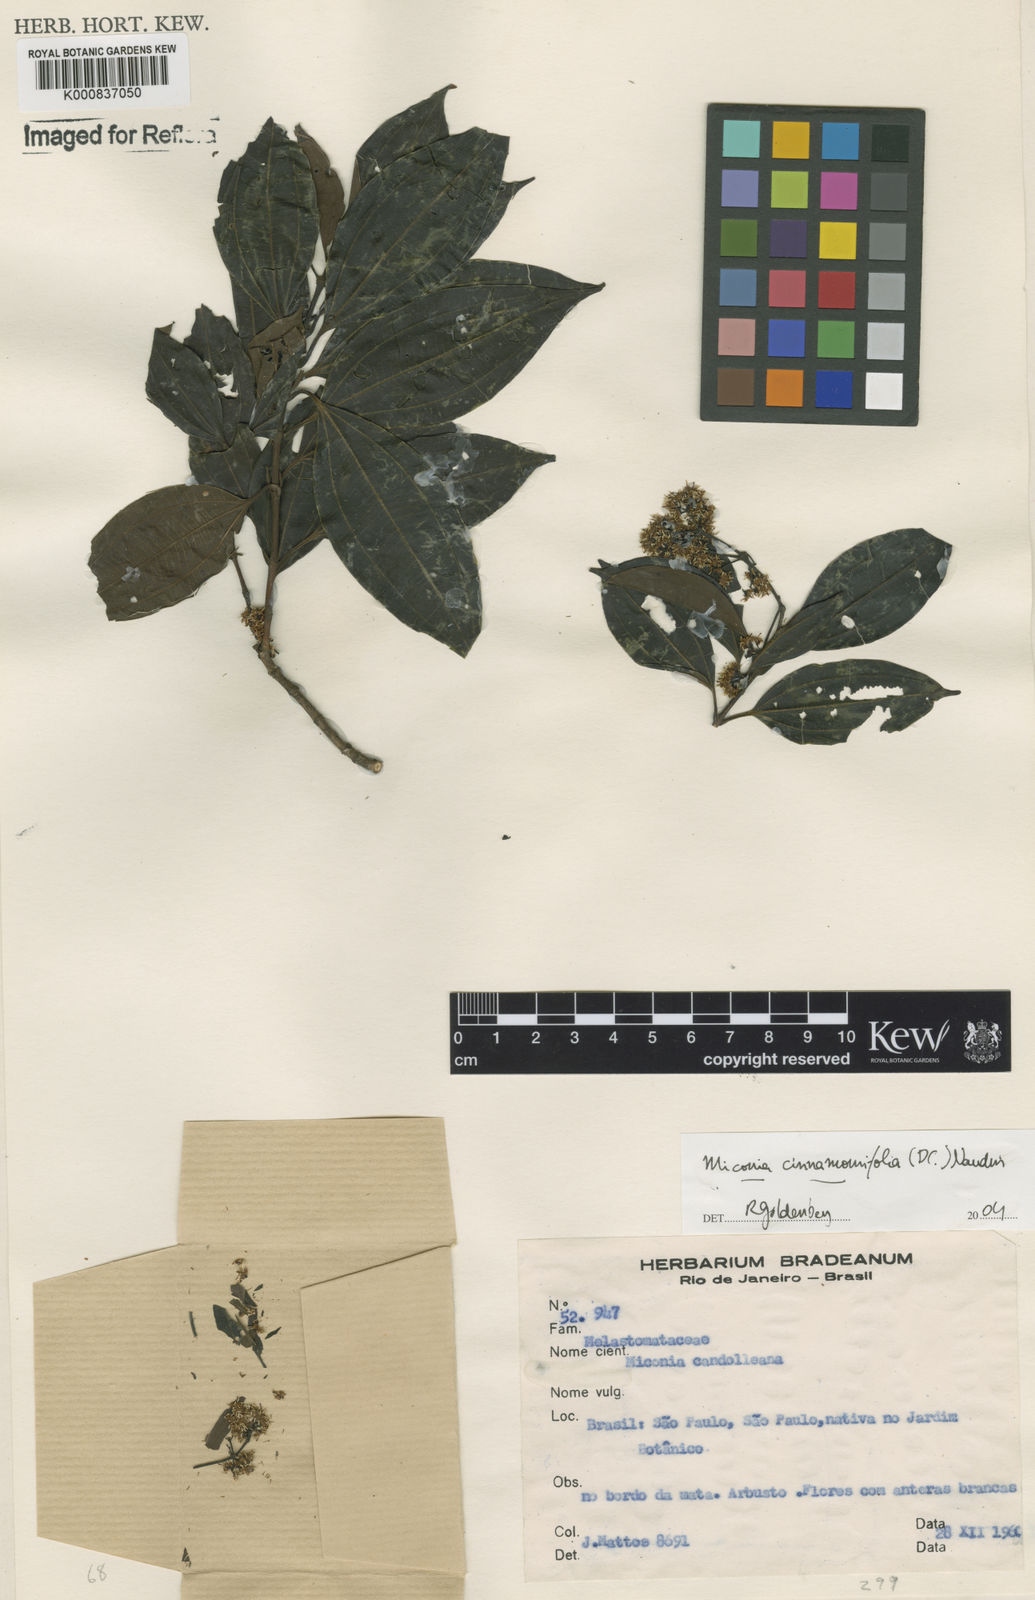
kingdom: Plantae
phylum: Tracheophyta
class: Magnoliopsida
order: Myrtales
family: Melastomataceae
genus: Miconia
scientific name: Miconia cinnamomifolia
